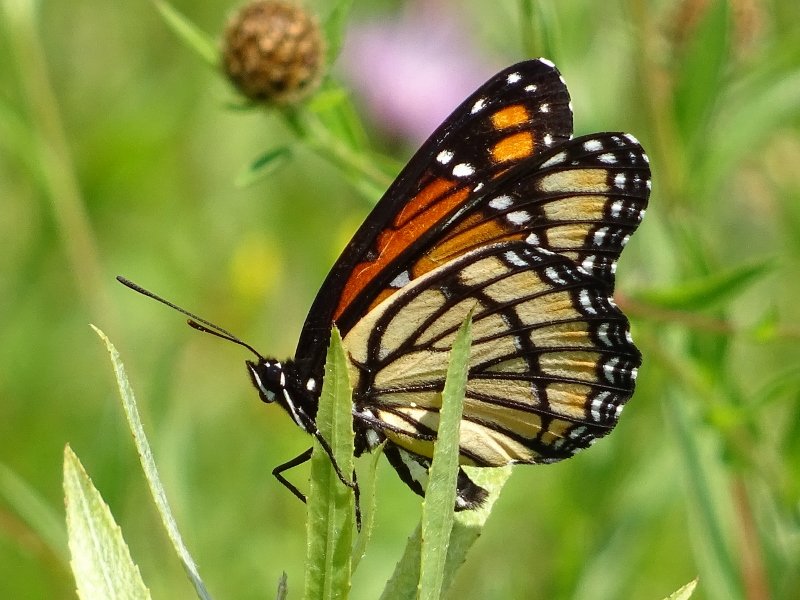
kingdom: Animalia
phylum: Arthropoda
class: Insecta
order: Lepidoptera
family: Nymphalidae
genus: Limenitis
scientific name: Limenitis archippus
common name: Viceroy
